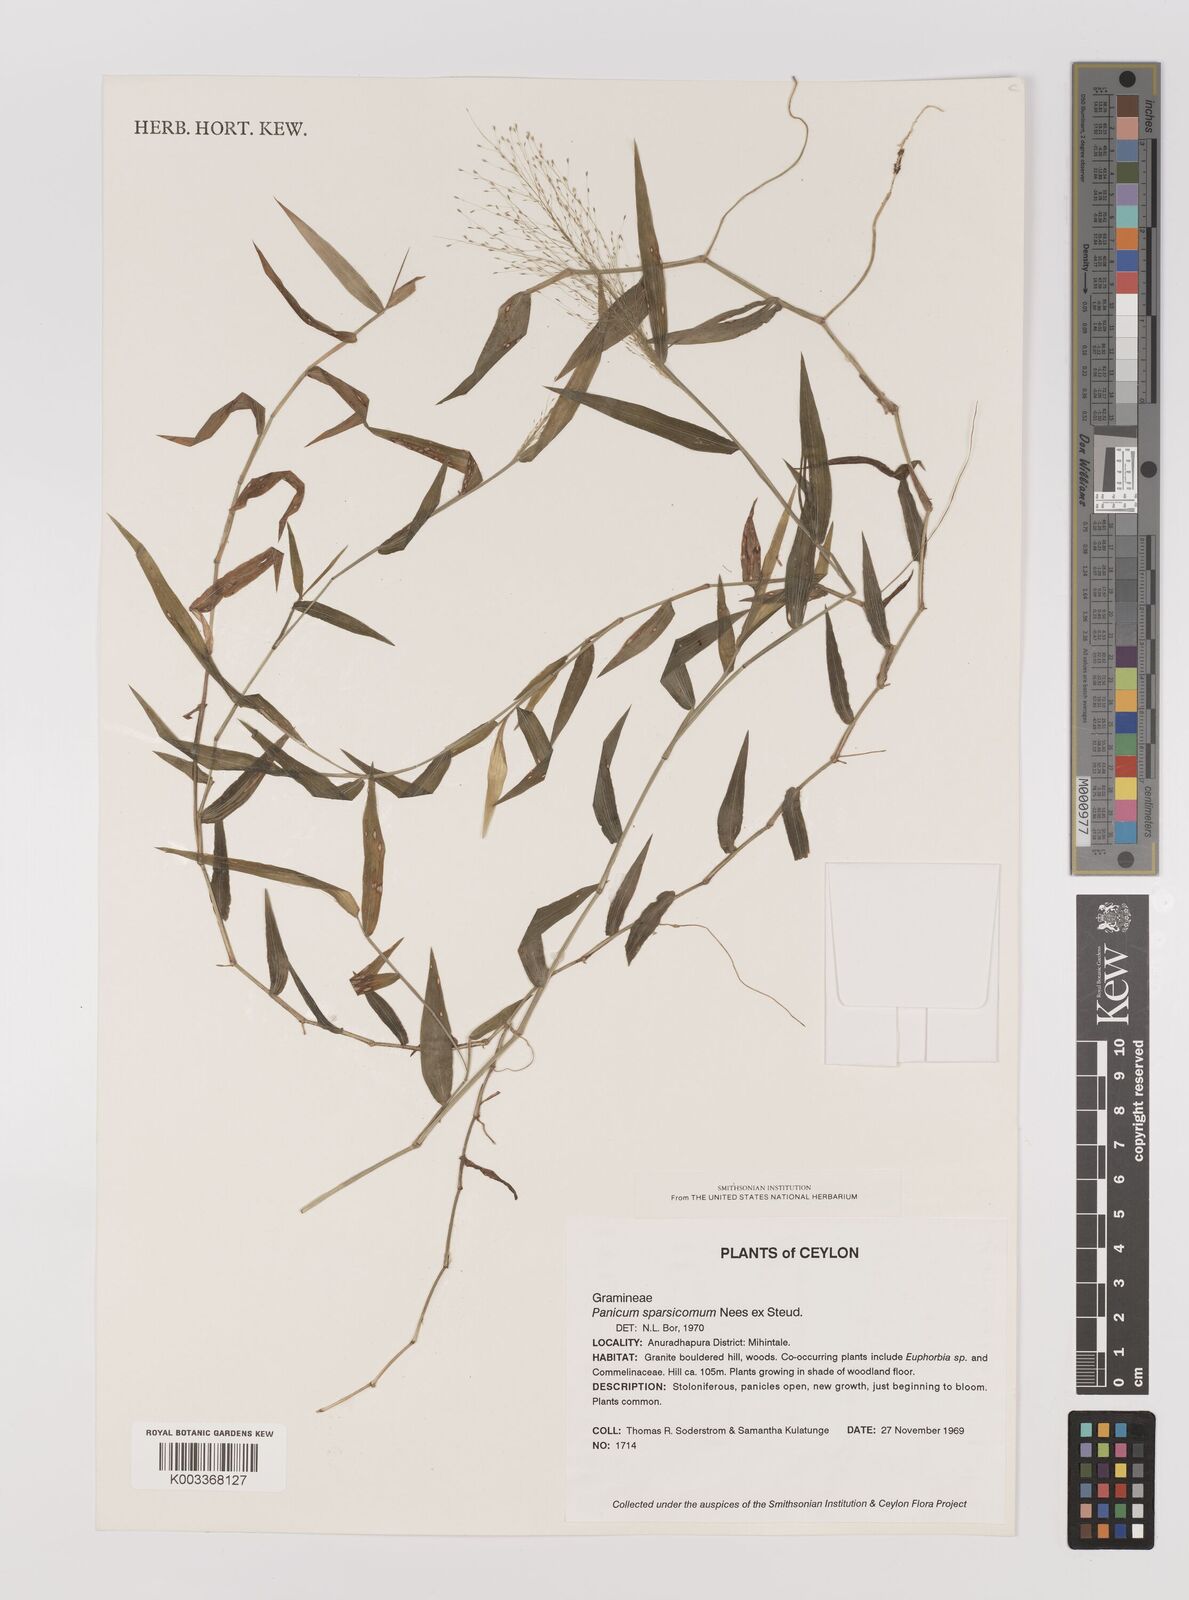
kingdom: Plantae
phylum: Tracheophyta
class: Liliopsida
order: Poales
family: Poaceae
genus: Panicum
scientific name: Panicum sparsicomum
